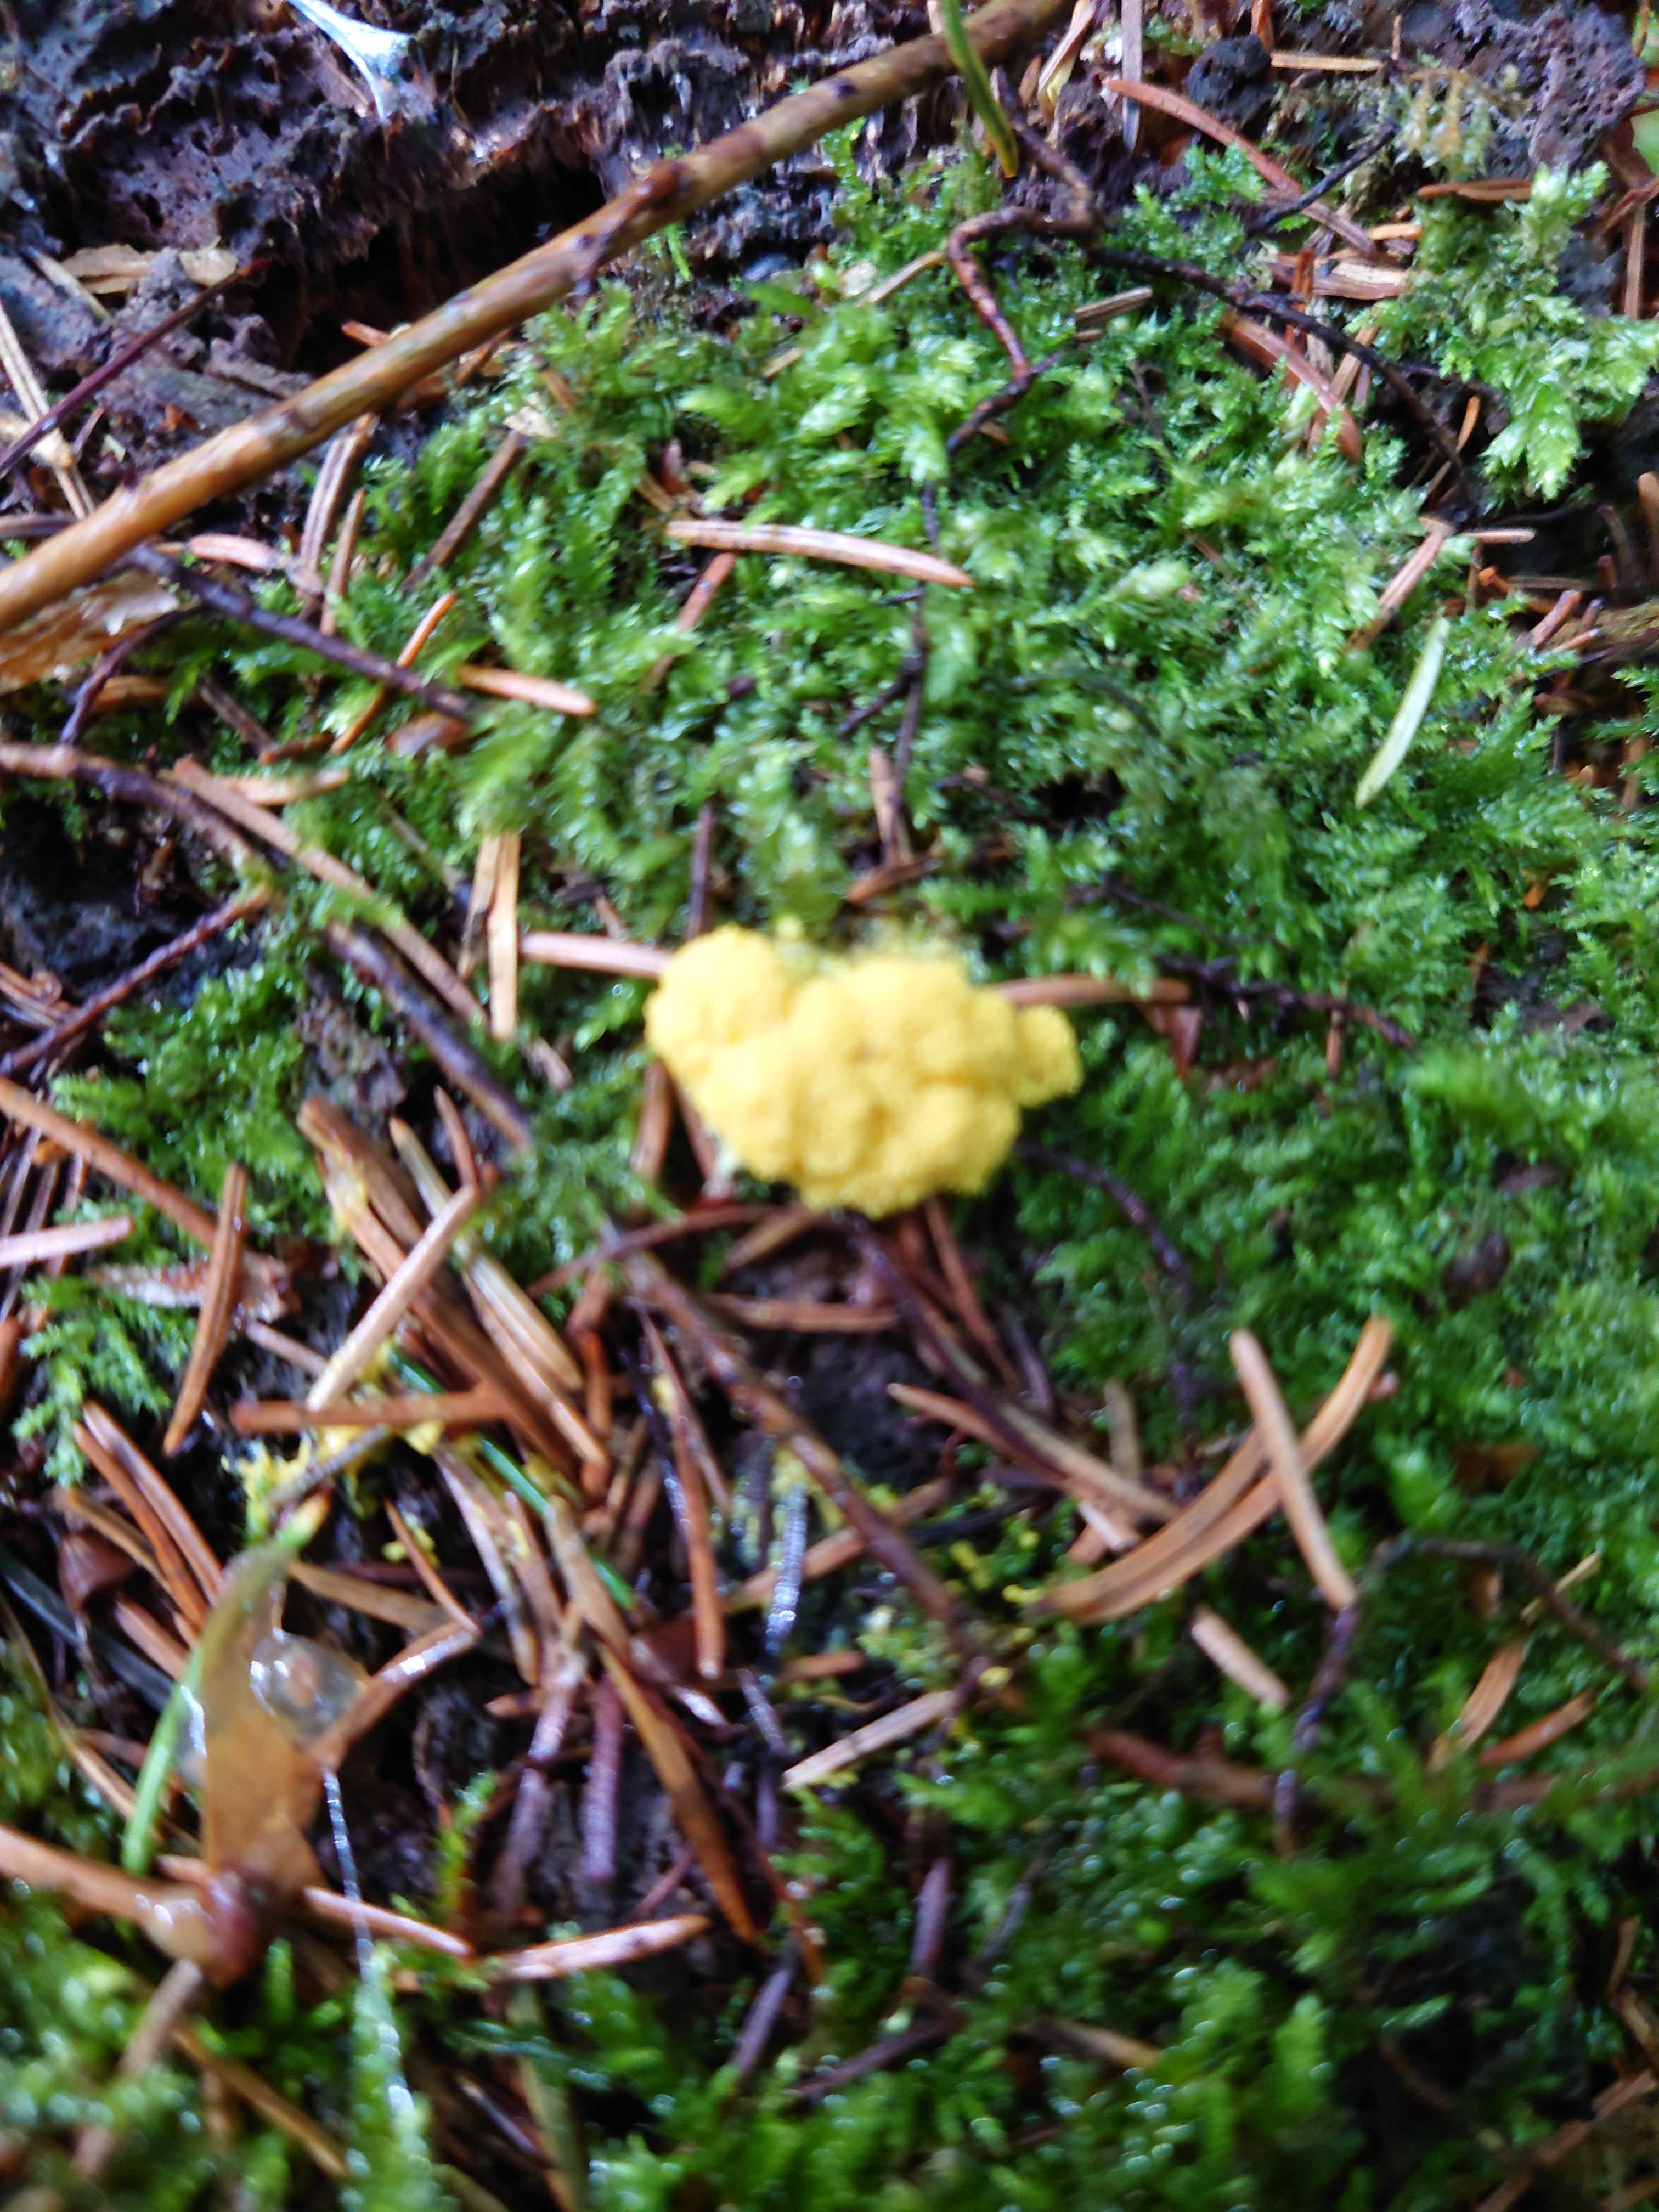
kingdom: Protozoa
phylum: Mycetozoa
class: Myxomycetes
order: Physarales
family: Physaraceae
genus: Fuligo
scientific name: Fuligo septica
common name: gul troldsmør
